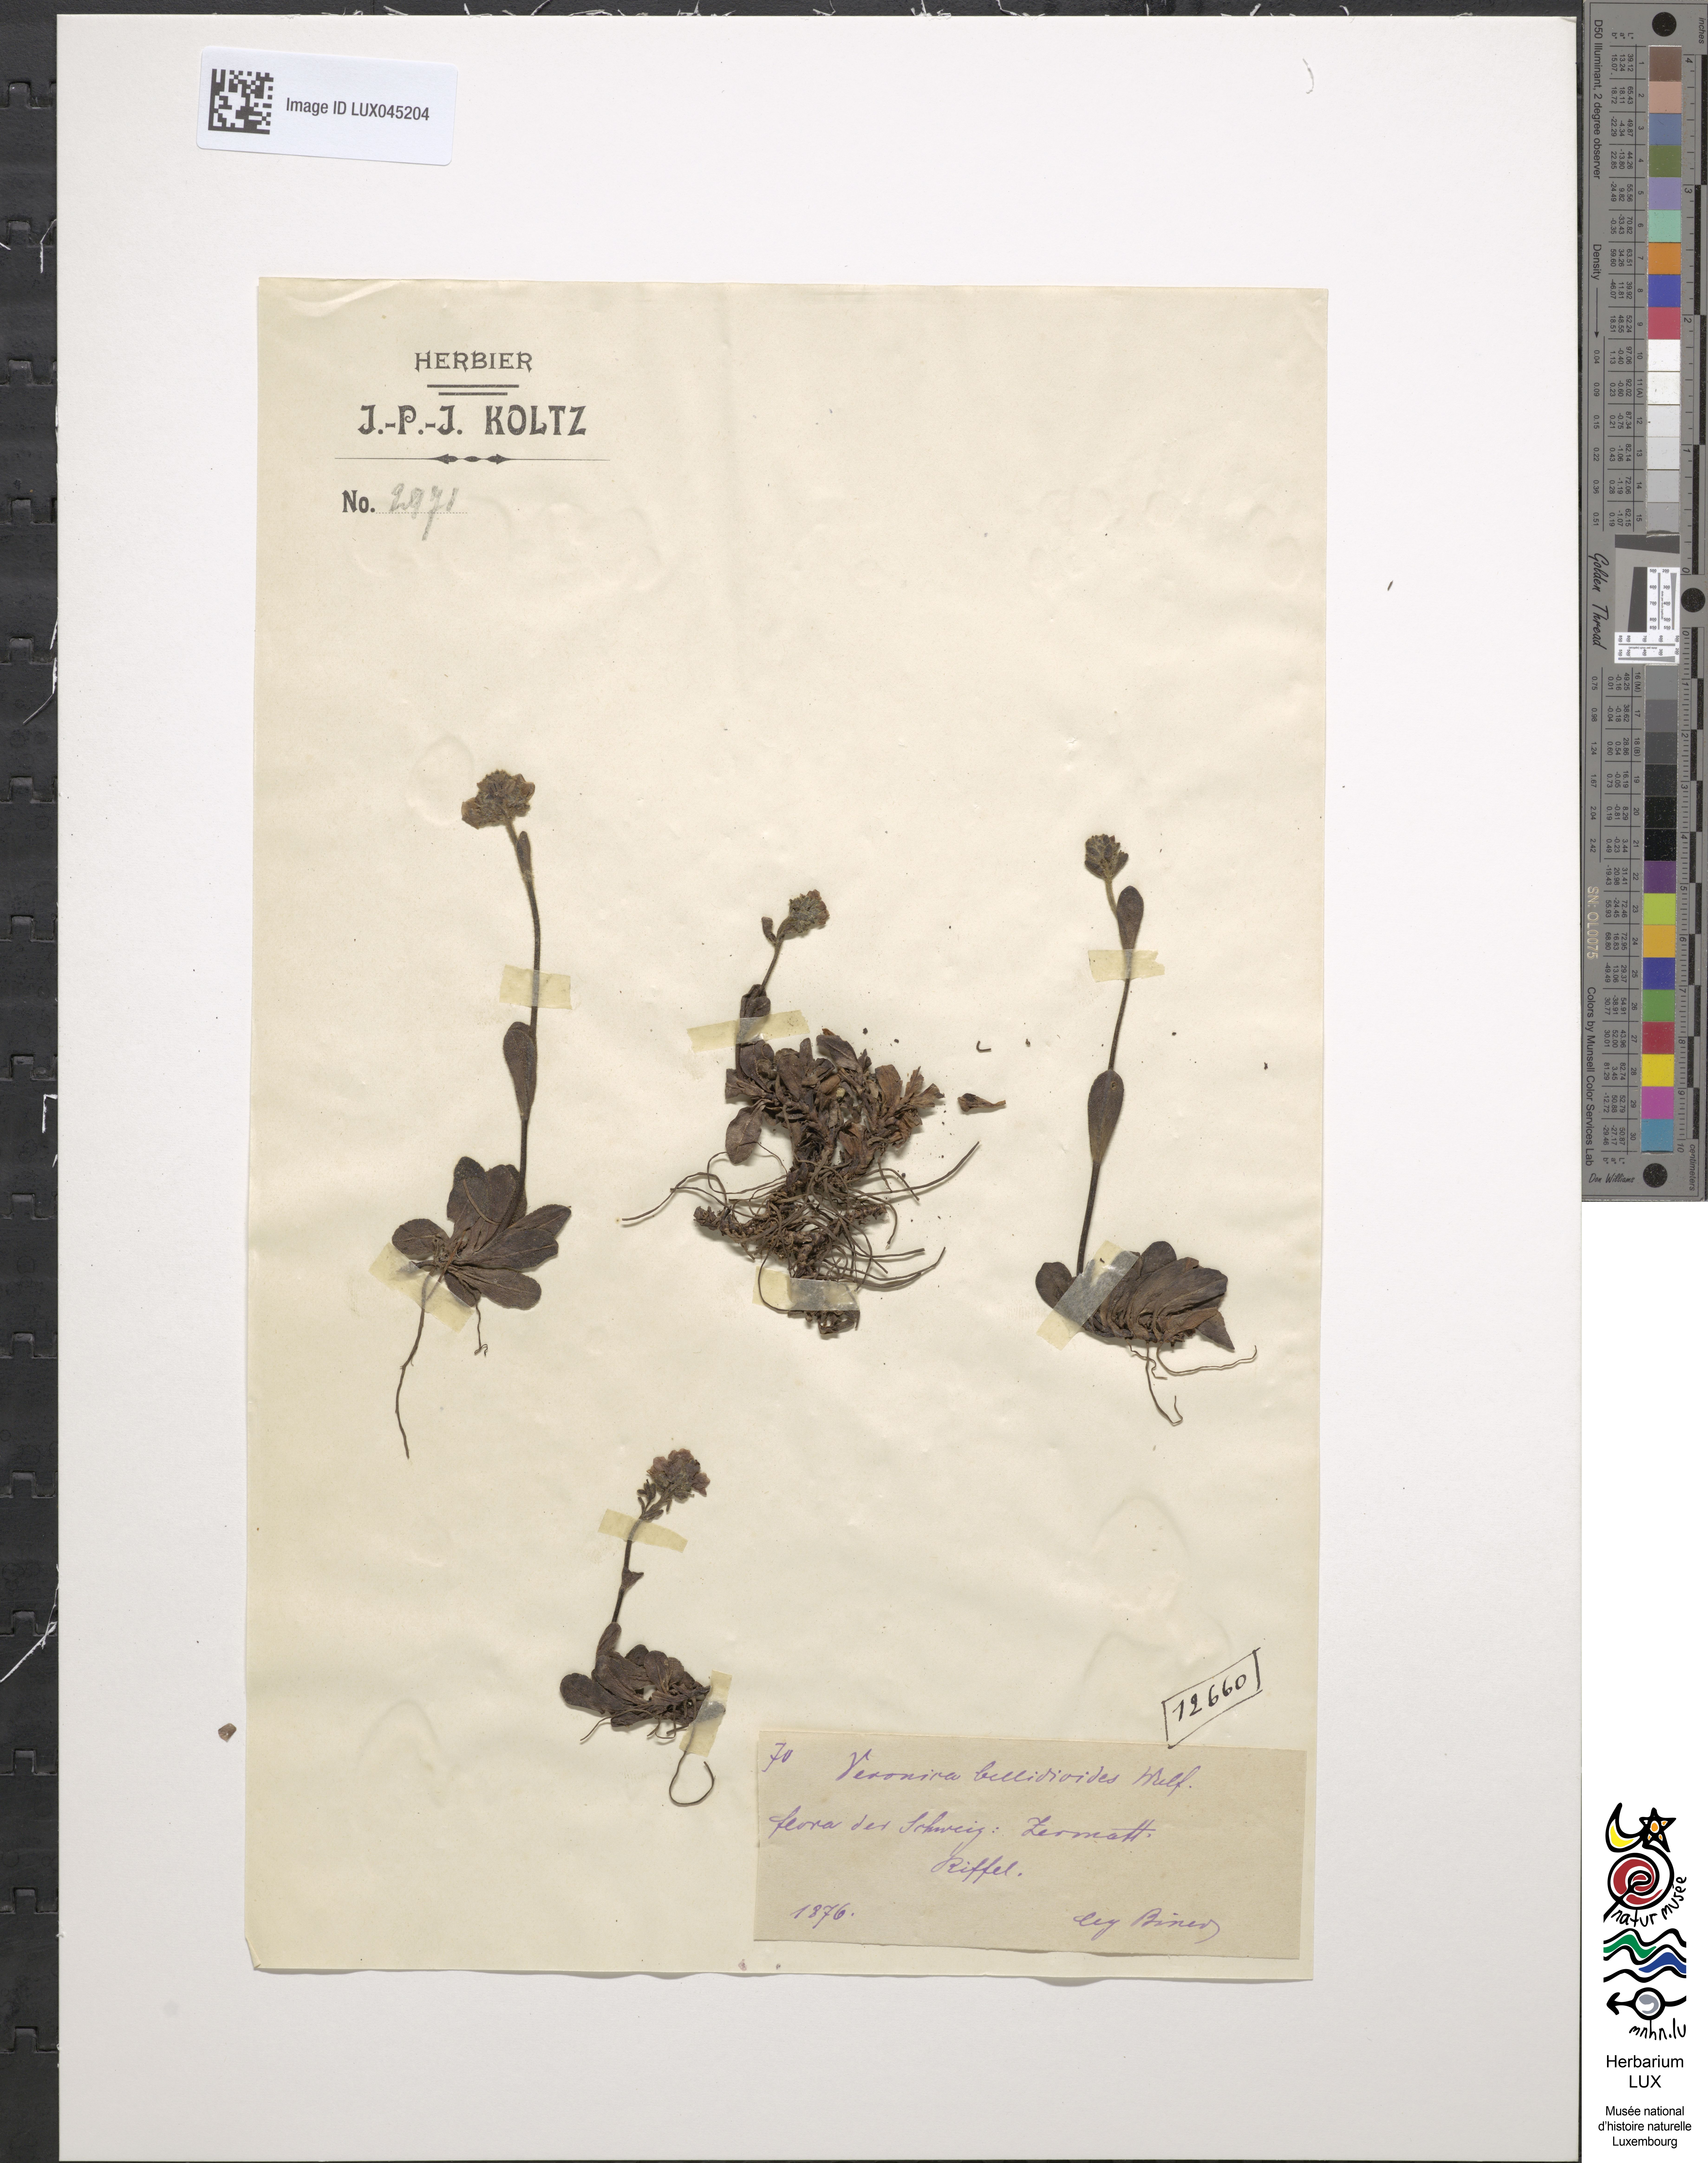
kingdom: Plantae
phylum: Tracheophyta
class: Magnoliopsida
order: Lamiales
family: Plantaginaceae
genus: Veronica
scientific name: Veronica bellidioides
